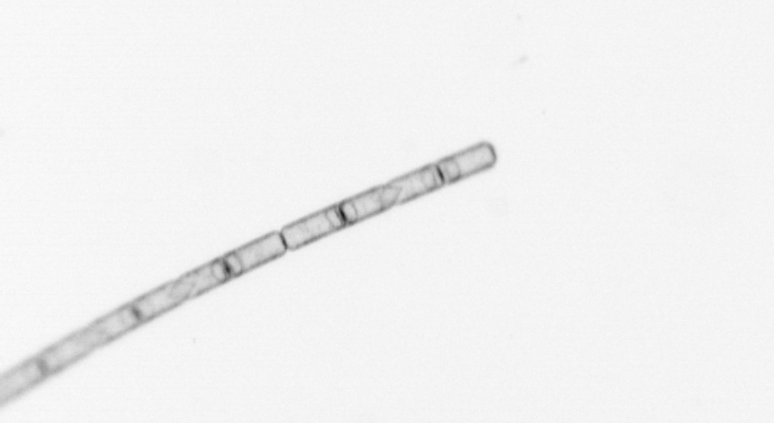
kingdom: Chromista
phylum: Ochrophyta
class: Bacillariophyceae
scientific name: Bacillariophyceae
